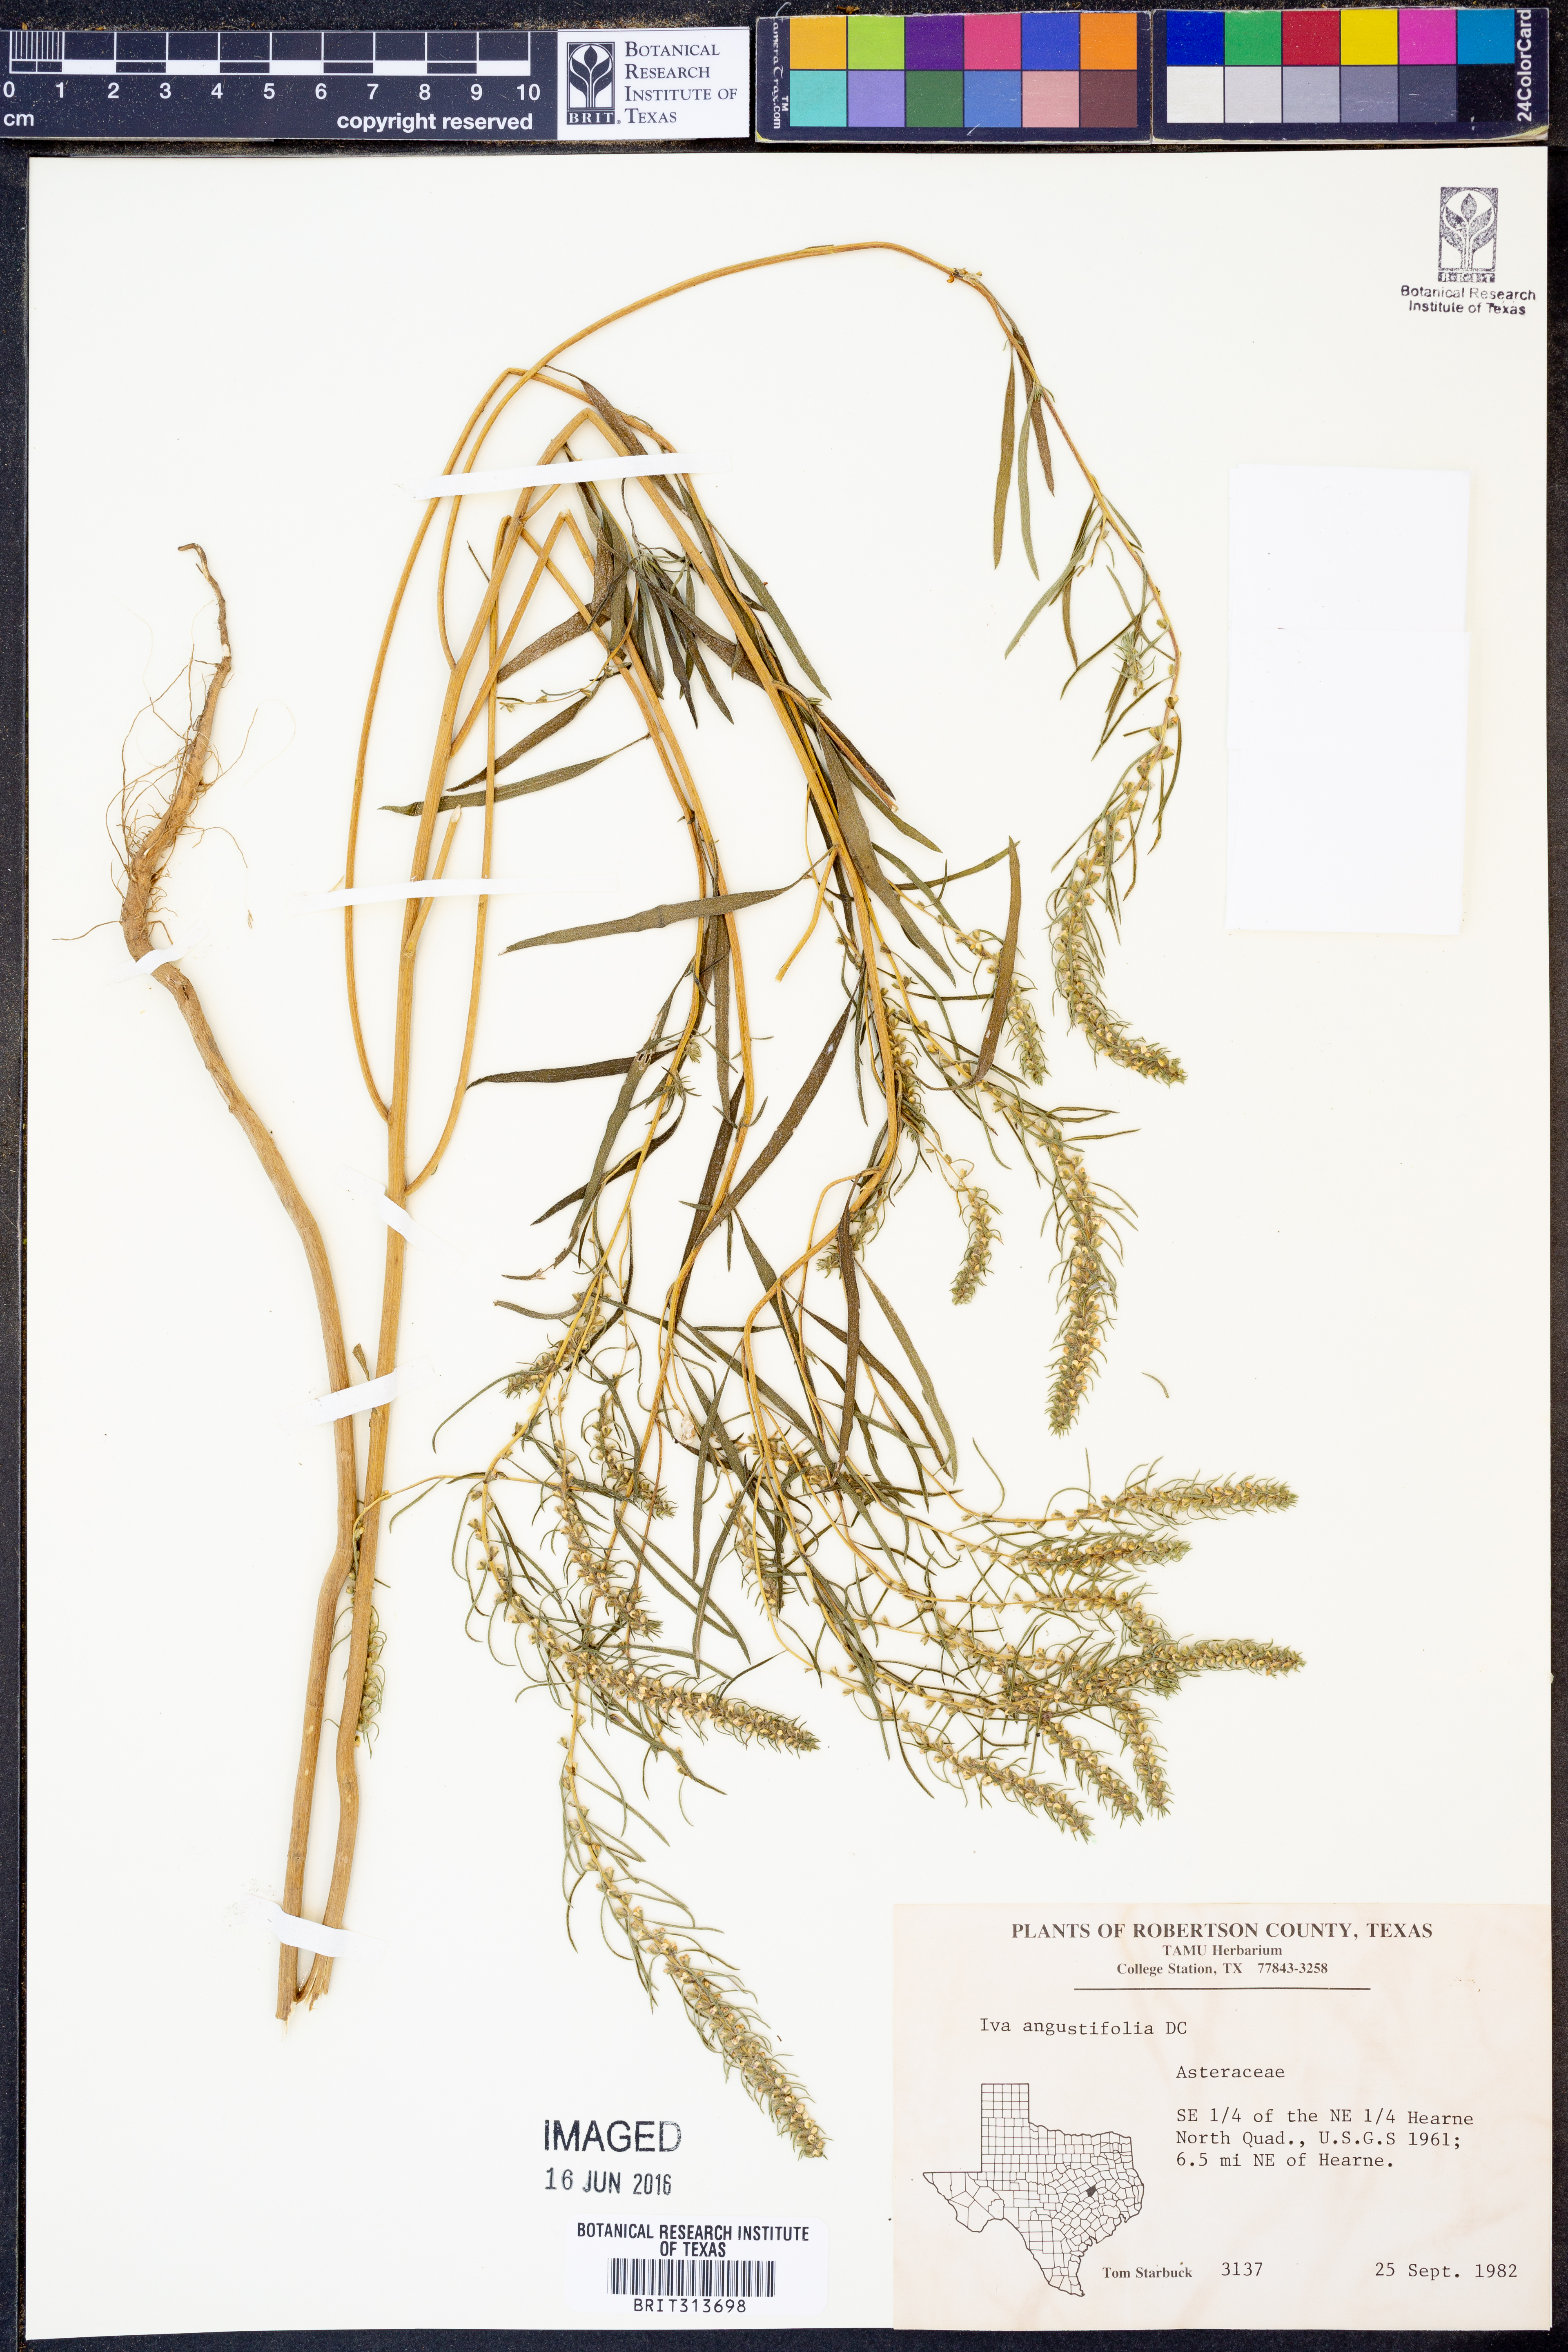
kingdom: Plantae
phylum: Tracheophyta
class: Magnoliopsida
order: Asterales
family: Asteraceae
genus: Iva
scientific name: Iva asperifolia
